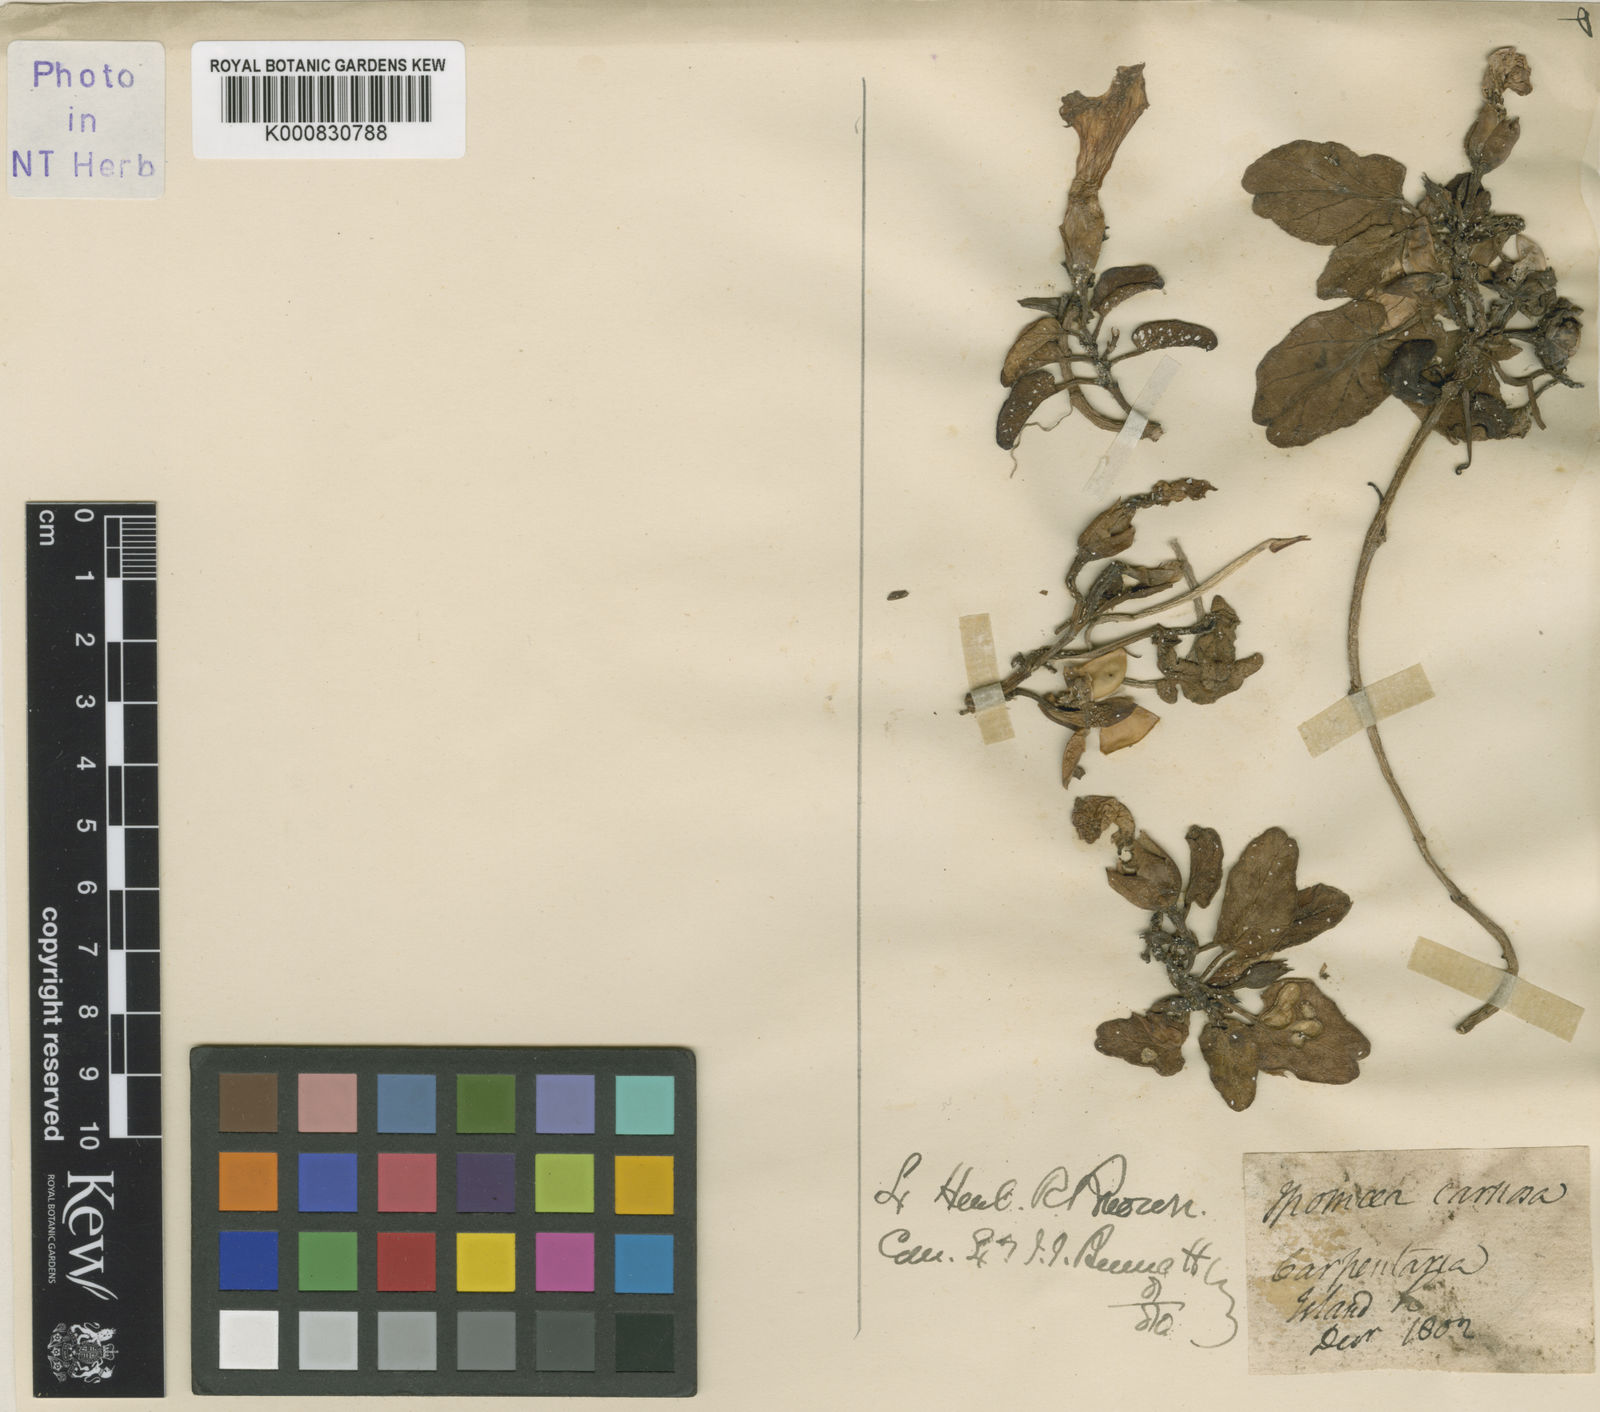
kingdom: Plantae
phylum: Tracheophyta
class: Magnoliopsida
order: Solanales
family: Convolvulaceae
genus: Ipomoea
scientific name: Ipomoea imperati
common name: Fiddle-leaf morning-glory
